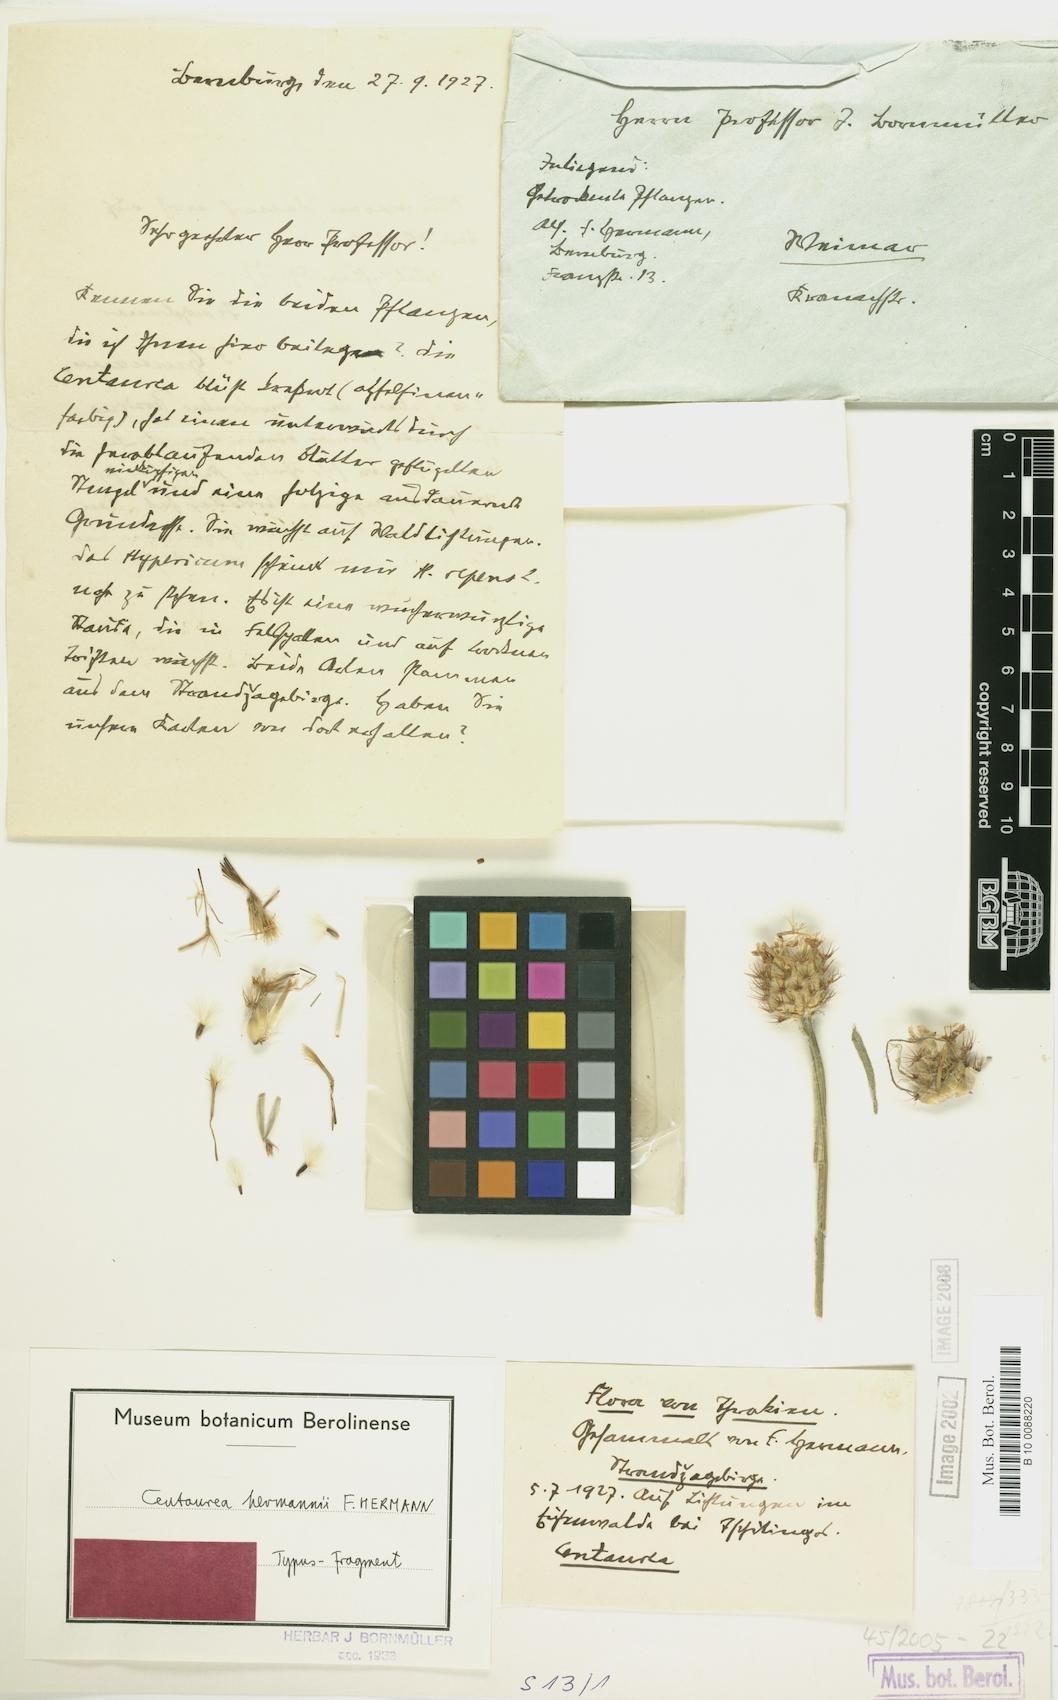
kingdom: Plantae
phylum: Tracheophyta
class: Magnoliopsida
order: Asterales
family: Asteraceae
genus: Centaurea
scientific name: Centaurea hermannii
